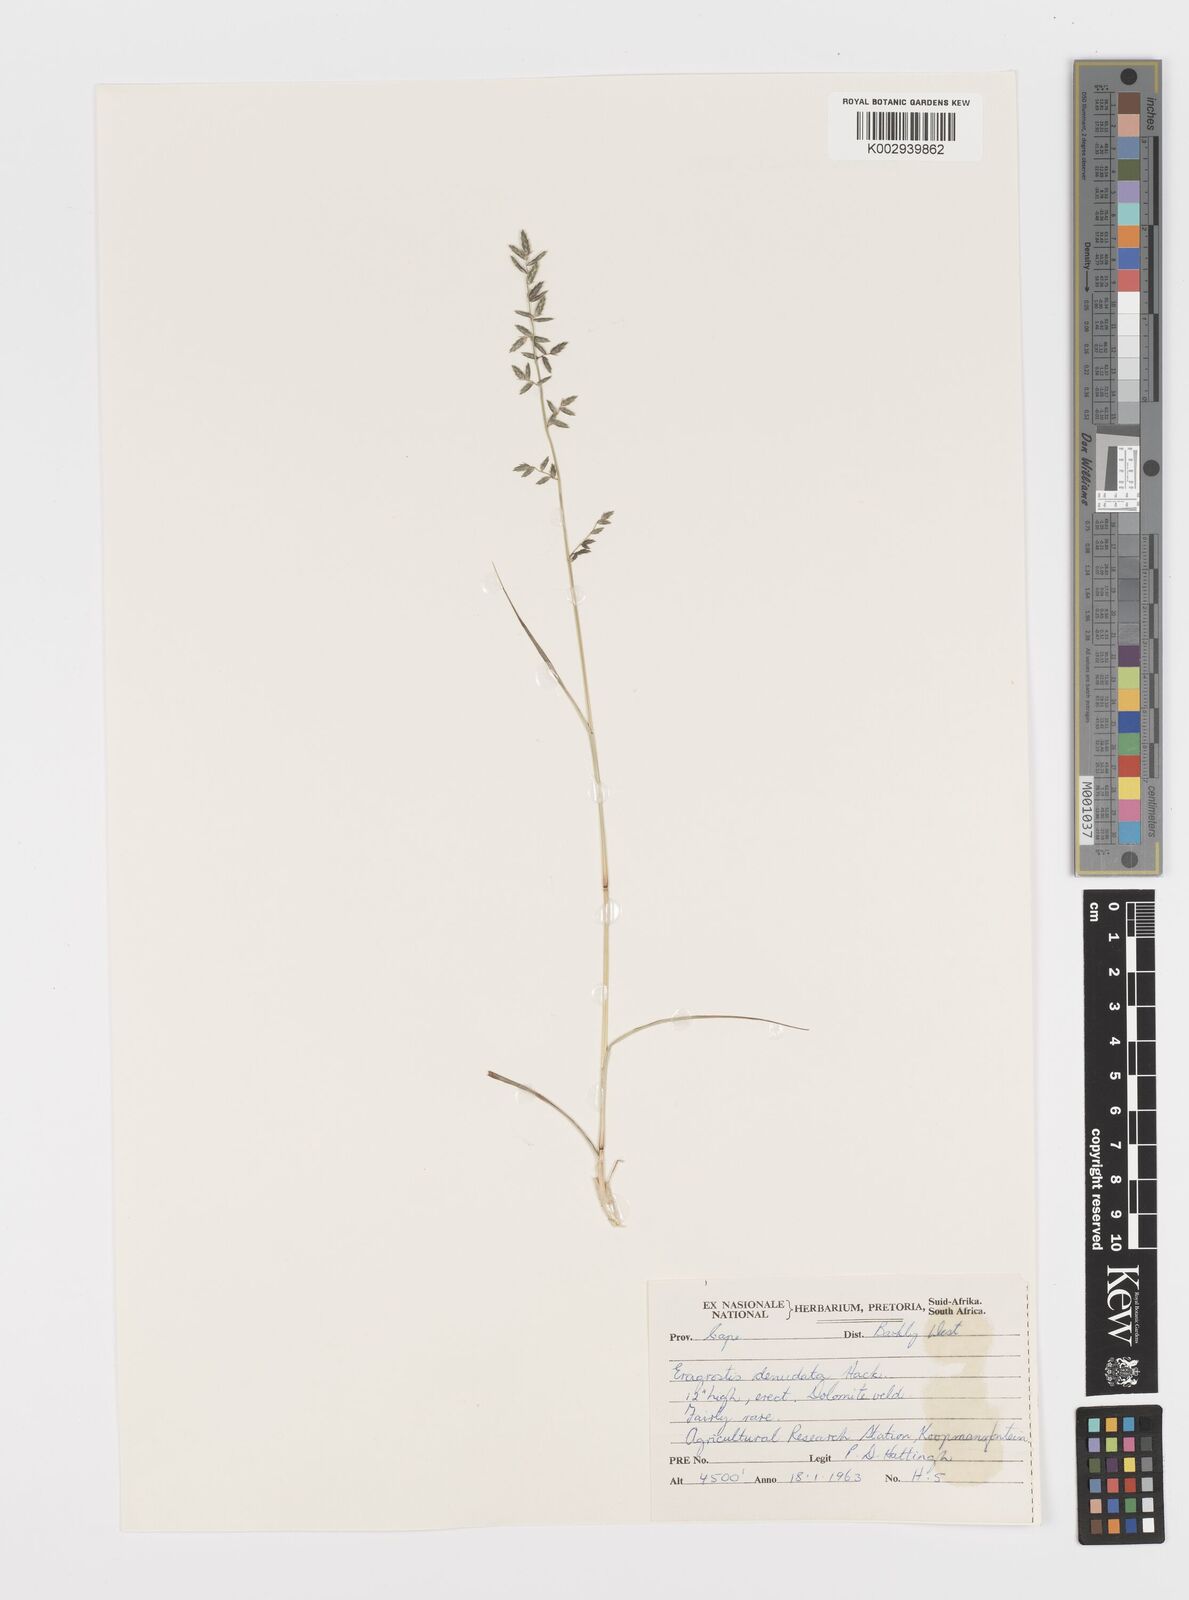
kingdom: Plantae
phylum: Tracheophyta
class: Liliopsida
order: Poales
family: Poaceae
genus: Eragrostis
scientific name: Eragrostis nindensis
